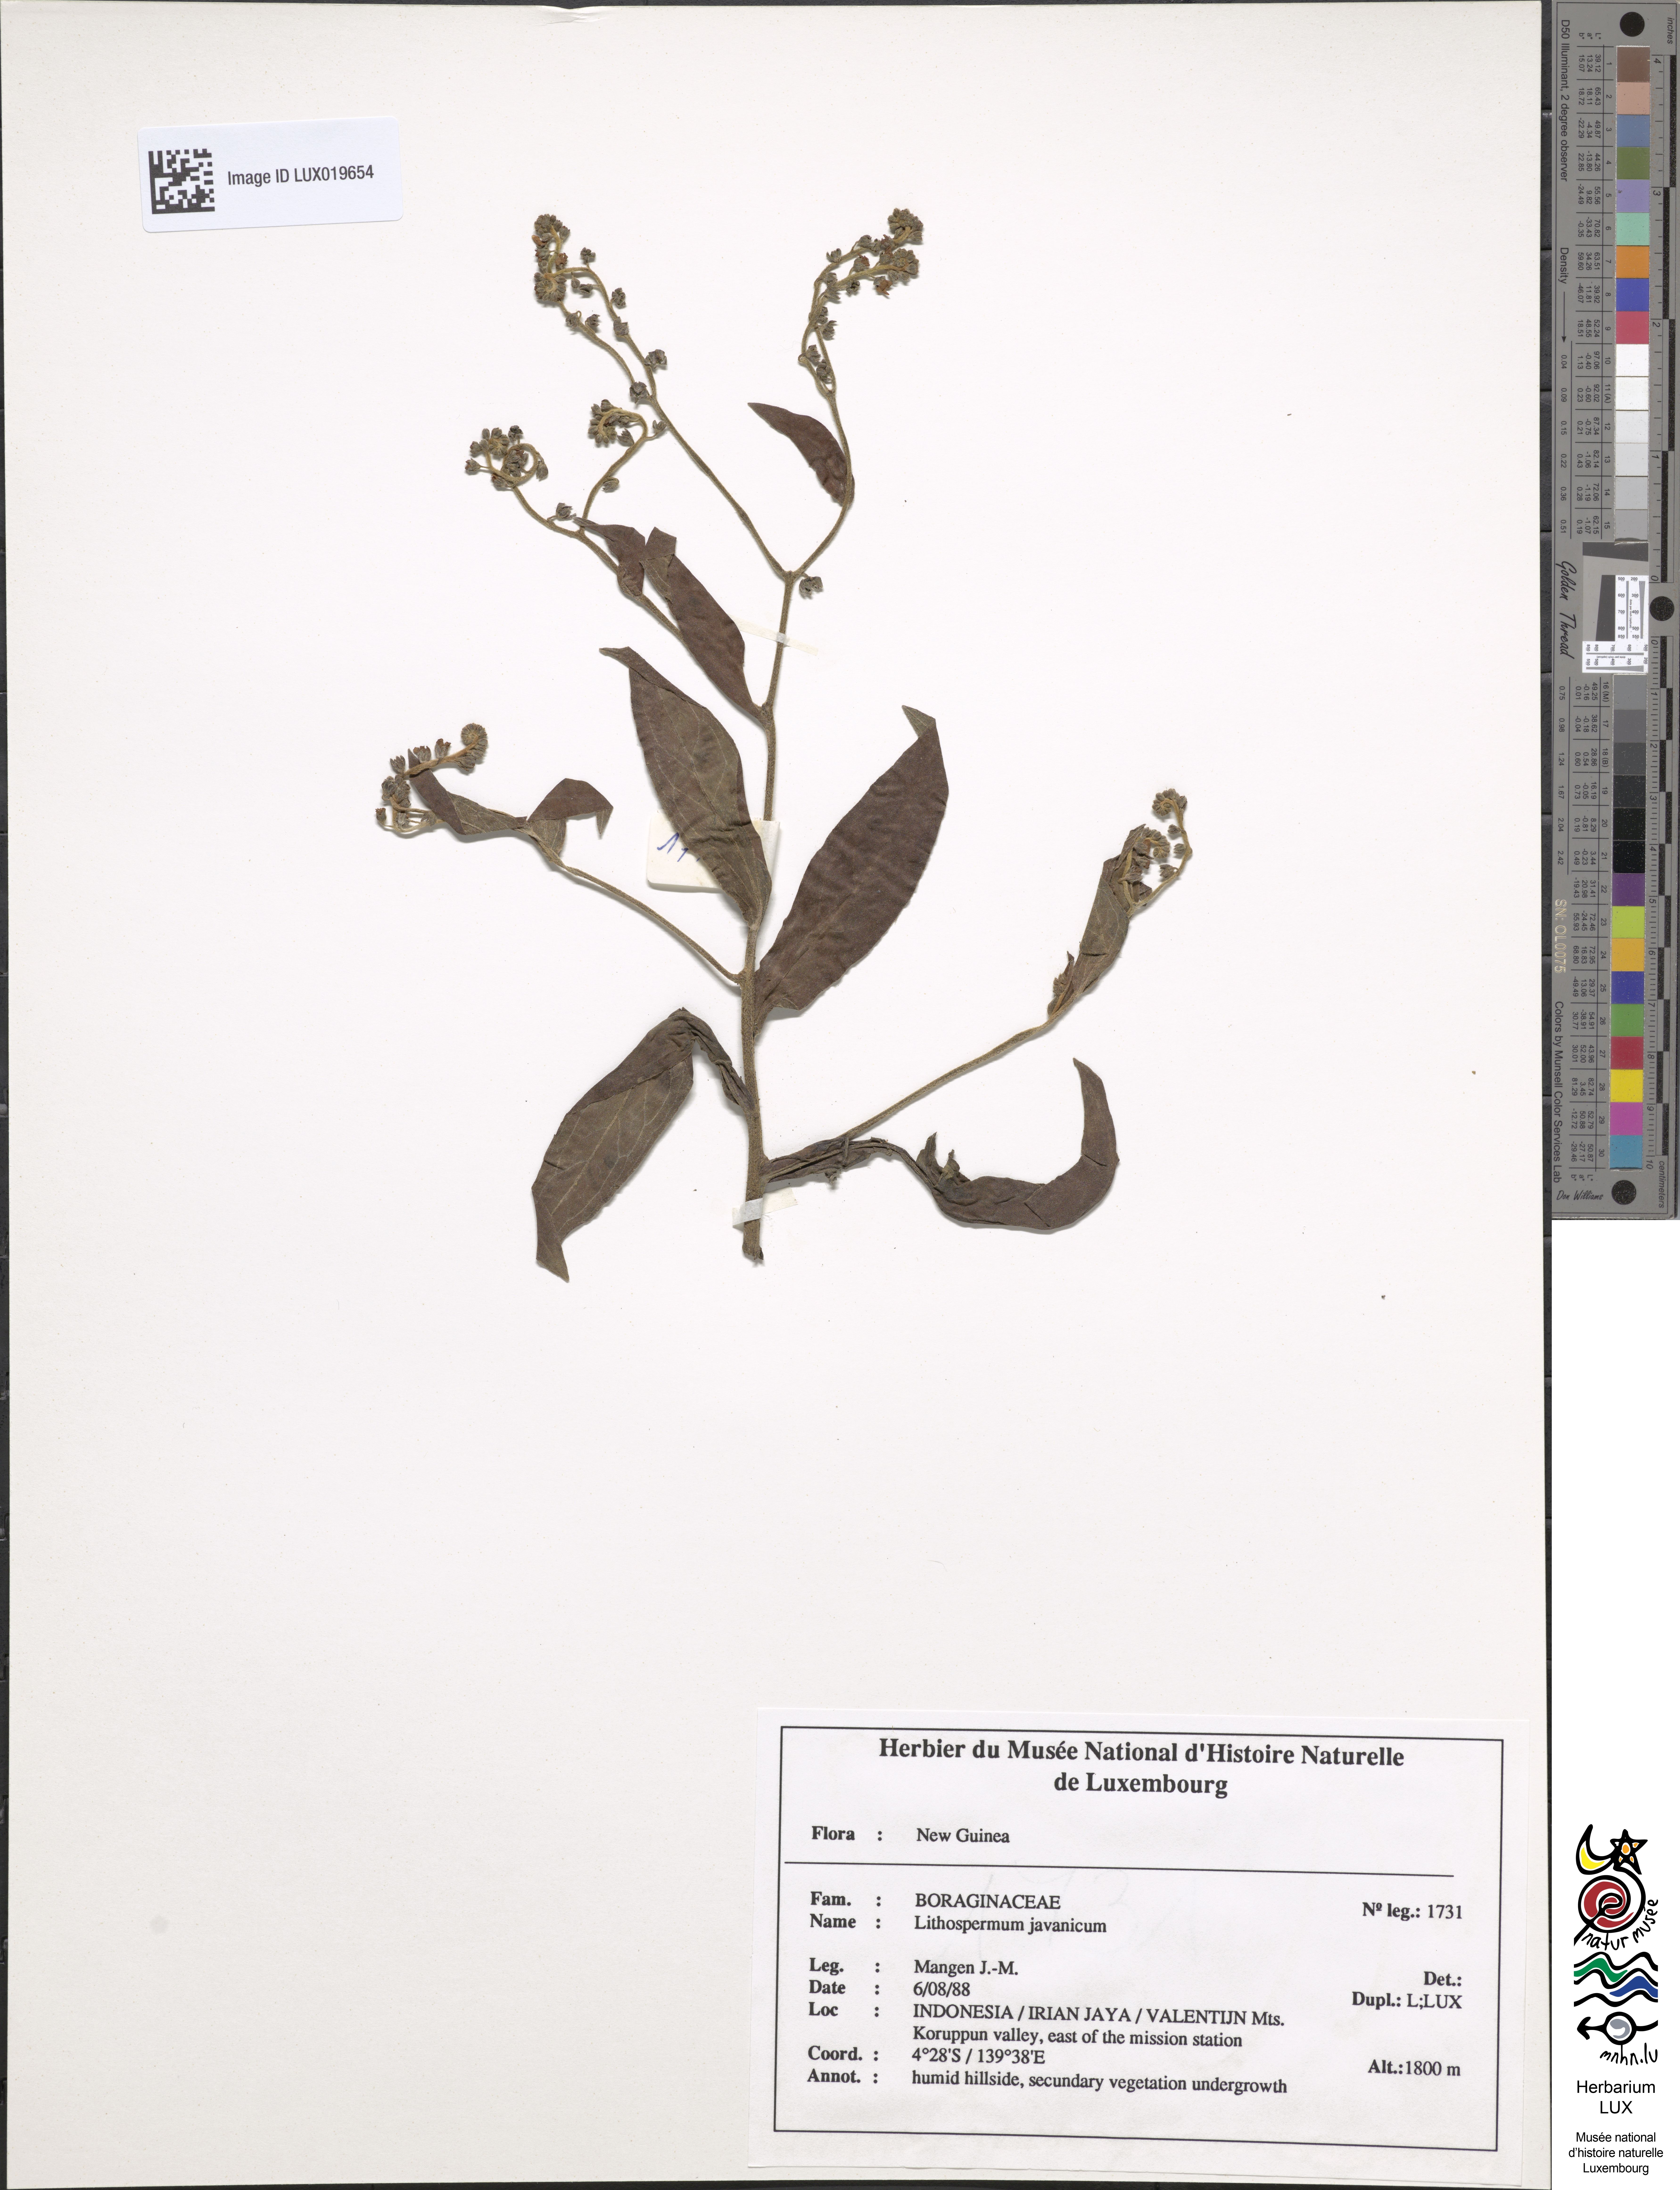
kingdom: Plantae
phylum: Tracheophyta
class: Magnoliopsida
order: Boraginales
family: Boraginaceae
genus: Plagiobothrys
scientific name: Plagiobothrys orientalis
